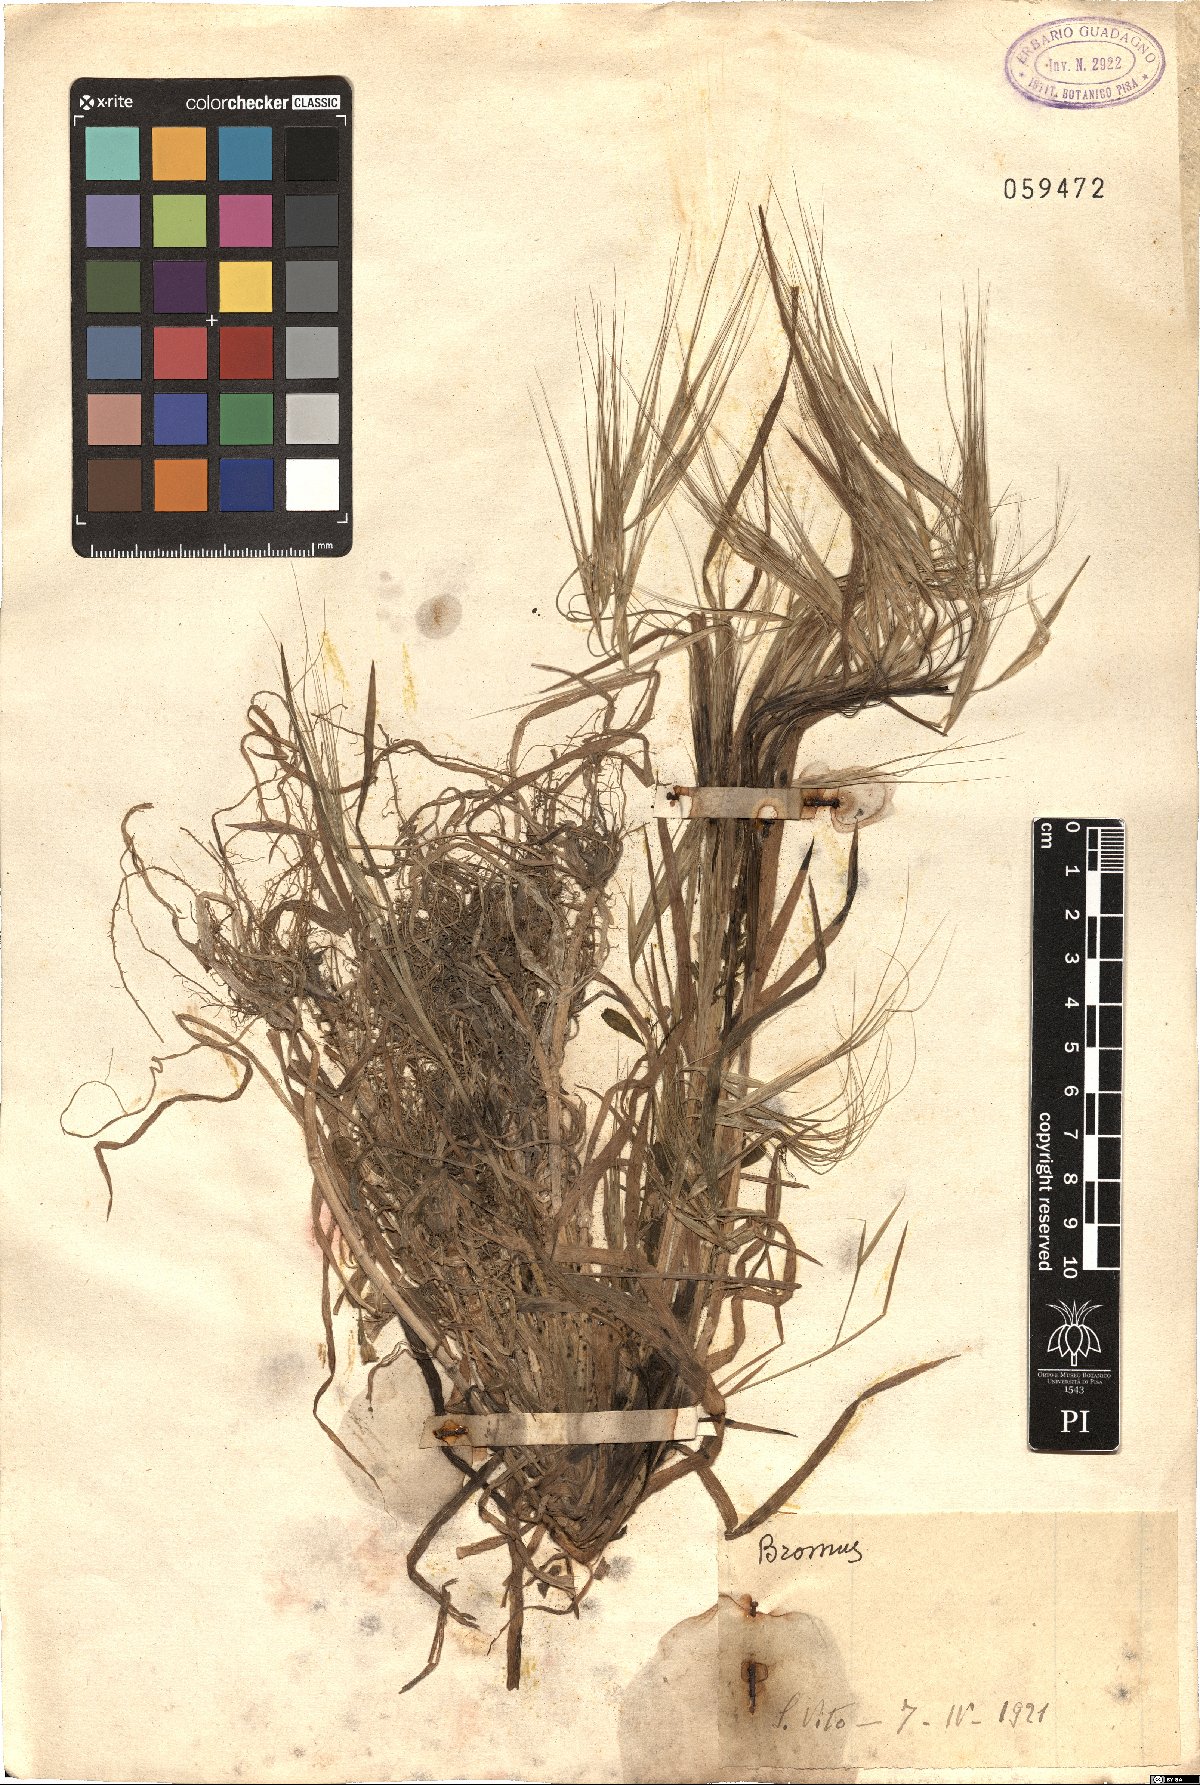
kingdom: Plantae
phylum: Tracheophyta
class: Liliopsida
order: Poales
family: Poaceae
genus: Bromus
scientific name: Bromus
